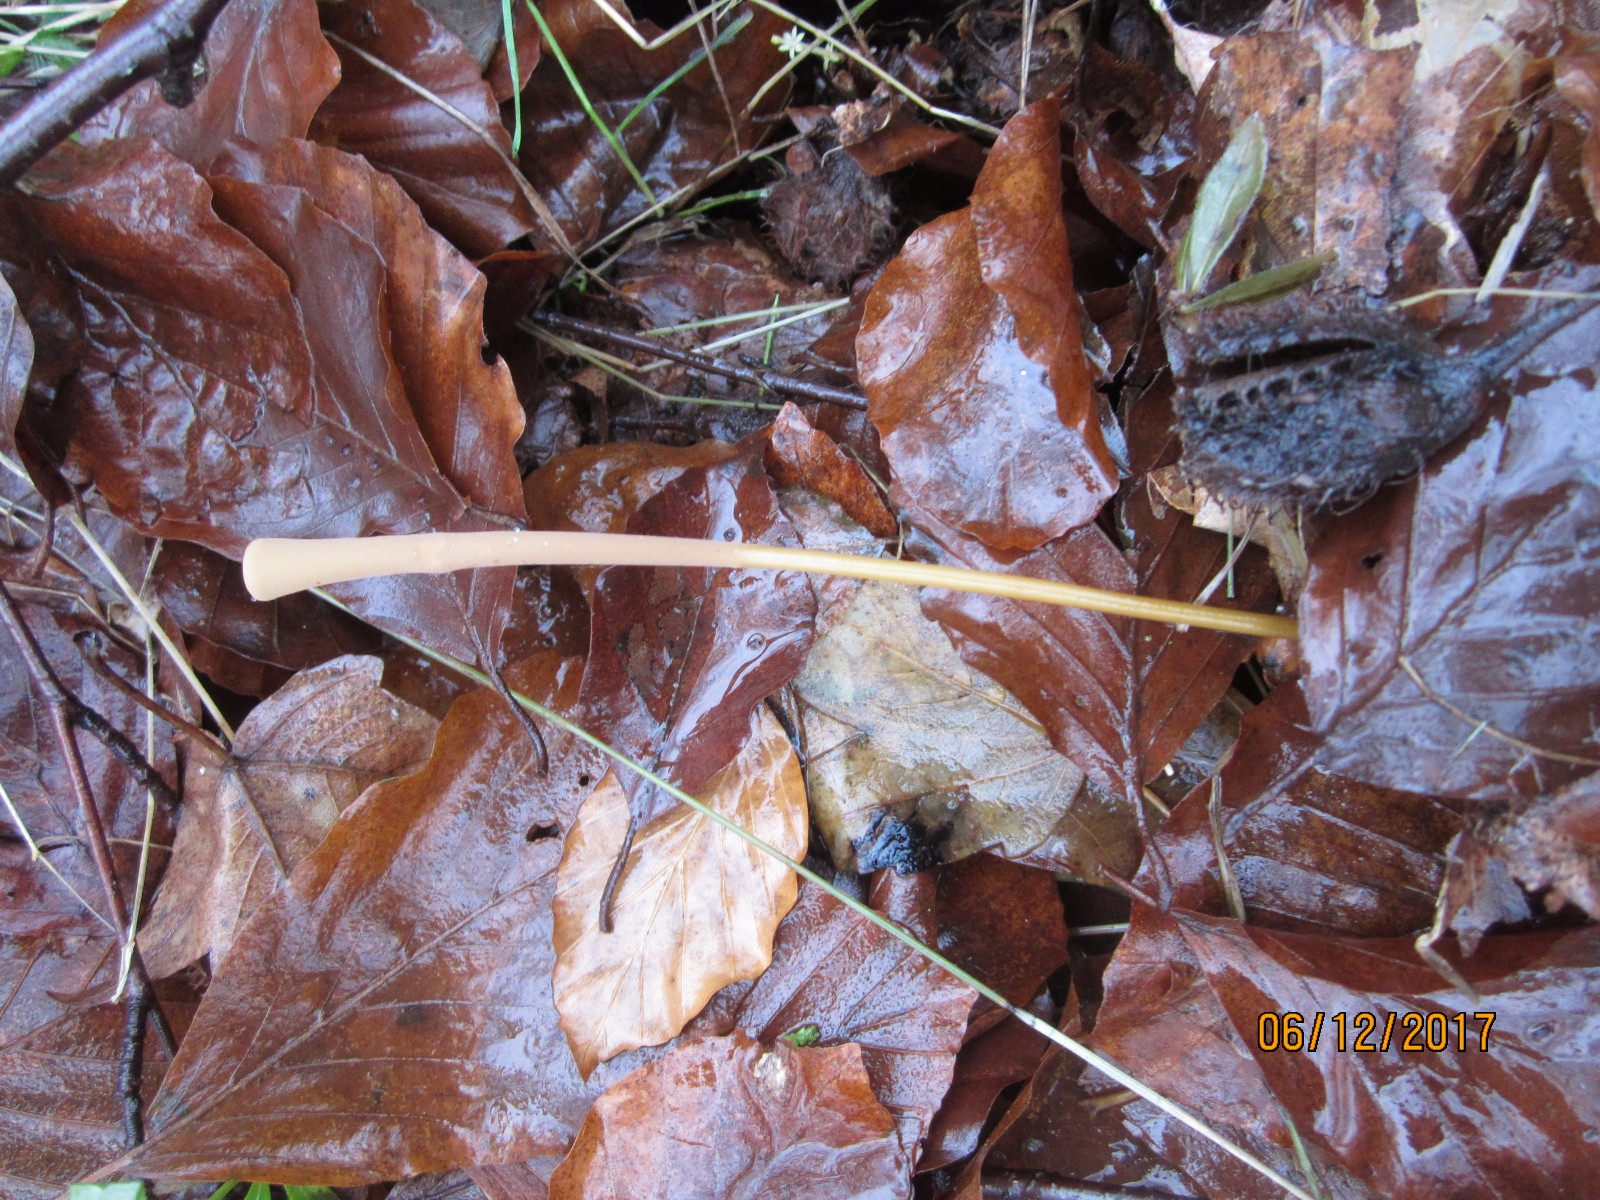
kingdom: Fungi
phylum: Basidiomycota
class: Agaricomycetes
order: Agaricales
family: Typhulaceae
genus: Typhula
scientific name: Typhula fistulosa
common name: pibet rørkølle
